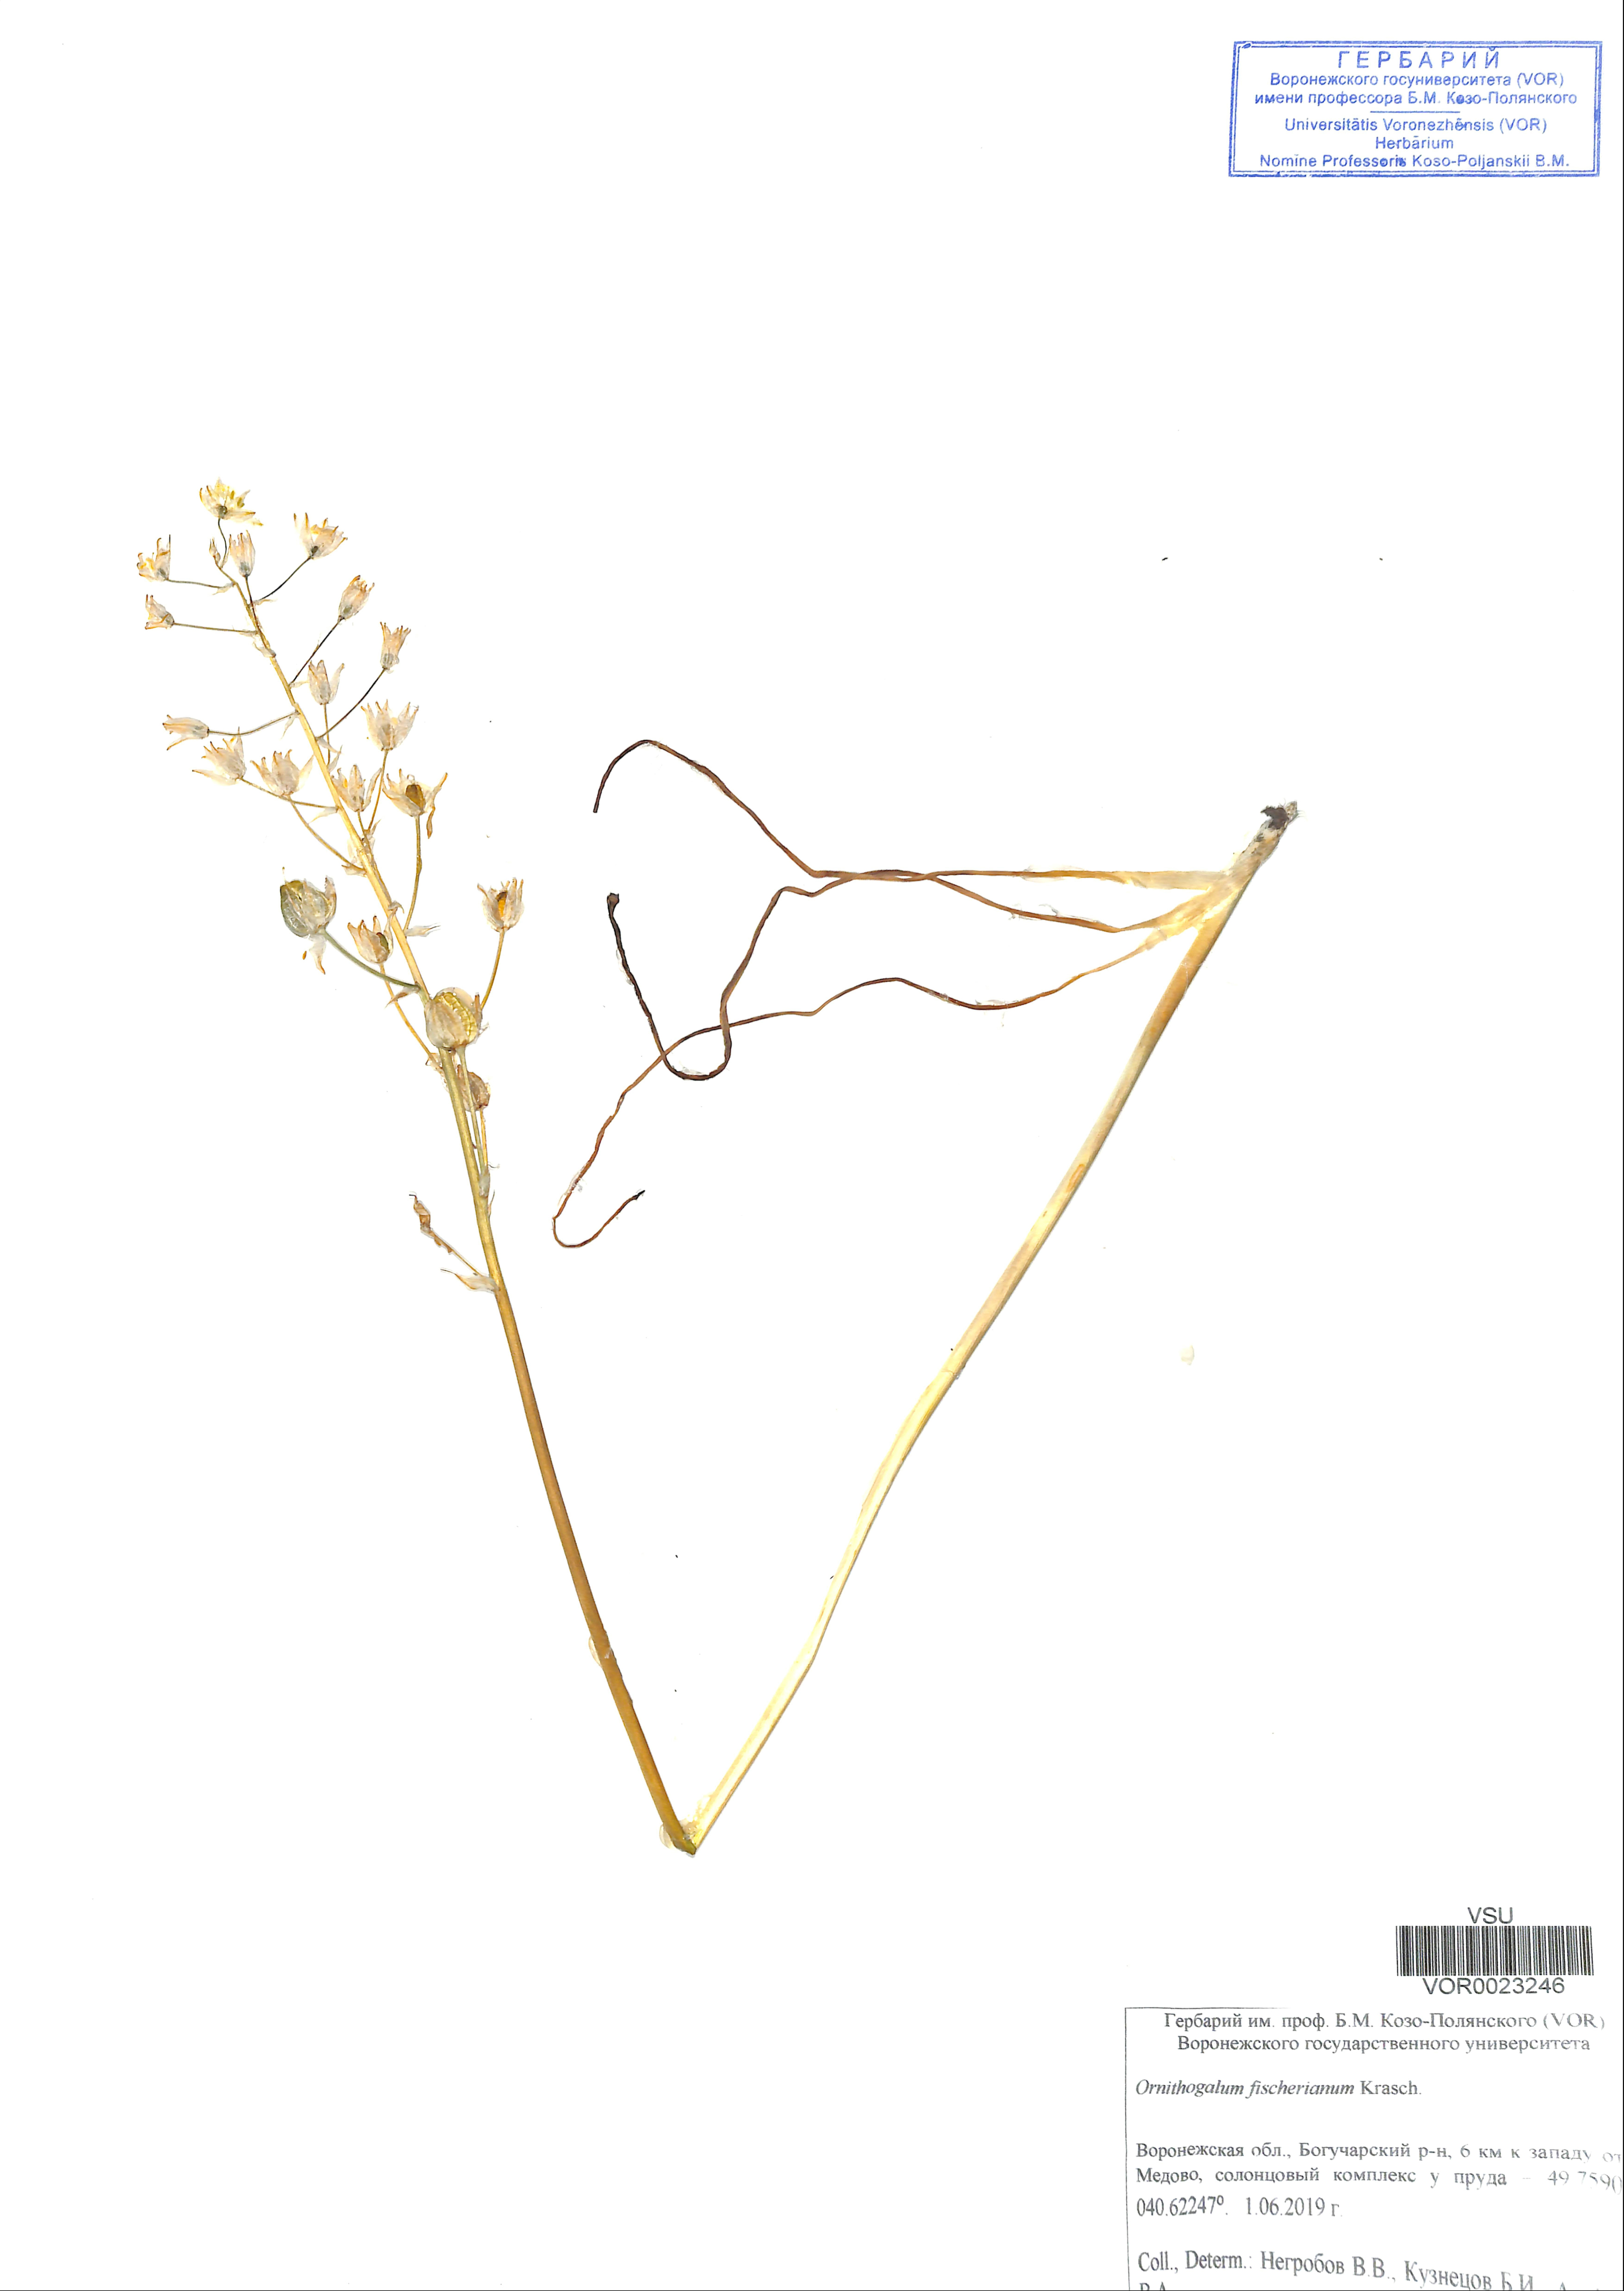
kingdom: Plantae
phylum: Tracheophyta
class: Liliopsida
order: Asparagales
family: Asparagaceae
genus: Ornithogalum
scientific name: Ornithogalum fischerianum
